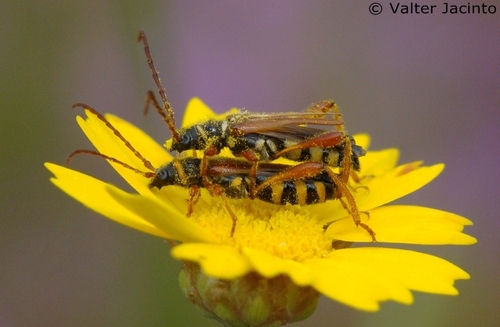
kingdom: Animalia
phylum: Arthropoda
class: Insecta
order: Coleoptera
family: Cerambycidae
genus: Stenopterus
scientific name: Stenopterus mauritanicus
